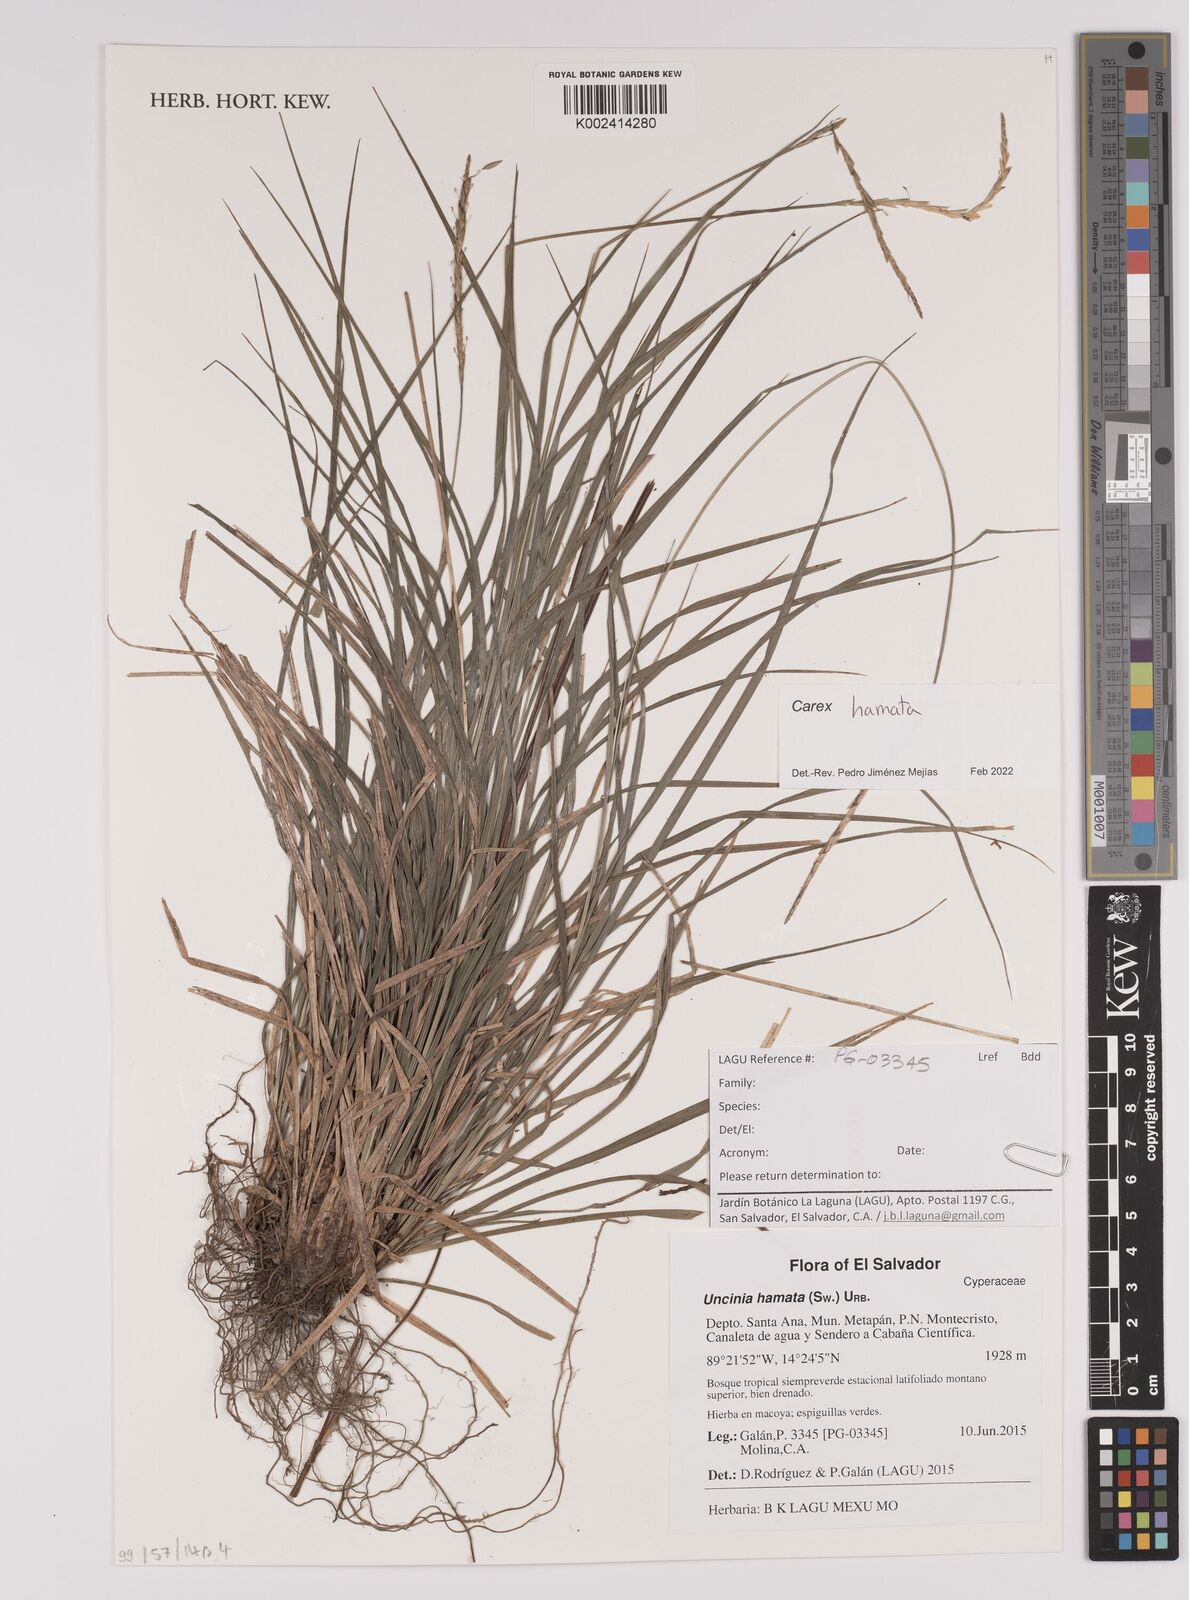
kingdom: Plantae
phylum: Tracheophyta
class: Liliopsida
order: Poales
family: Cyperaceae
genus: Carex
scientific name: Carex hamata
